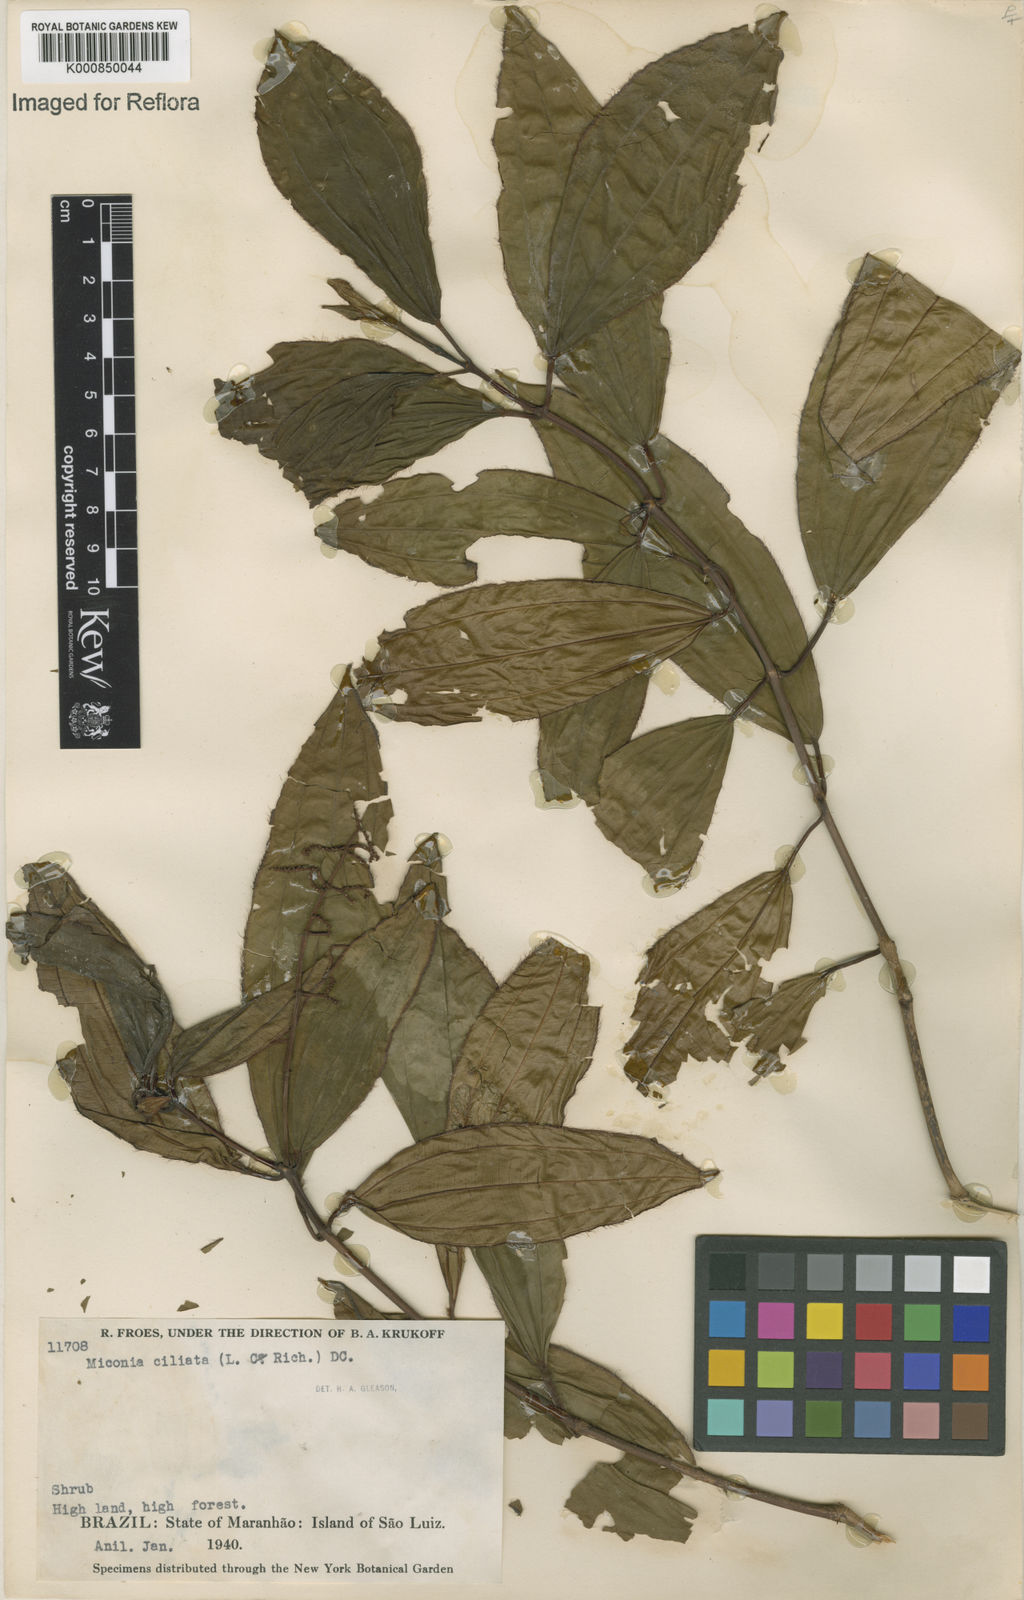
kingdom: Plantae
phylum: Tracheophyta
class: Magnoliopsida
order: Myrtales
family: Melastomataceae
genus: Miconia
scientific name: Miconia ciliata
